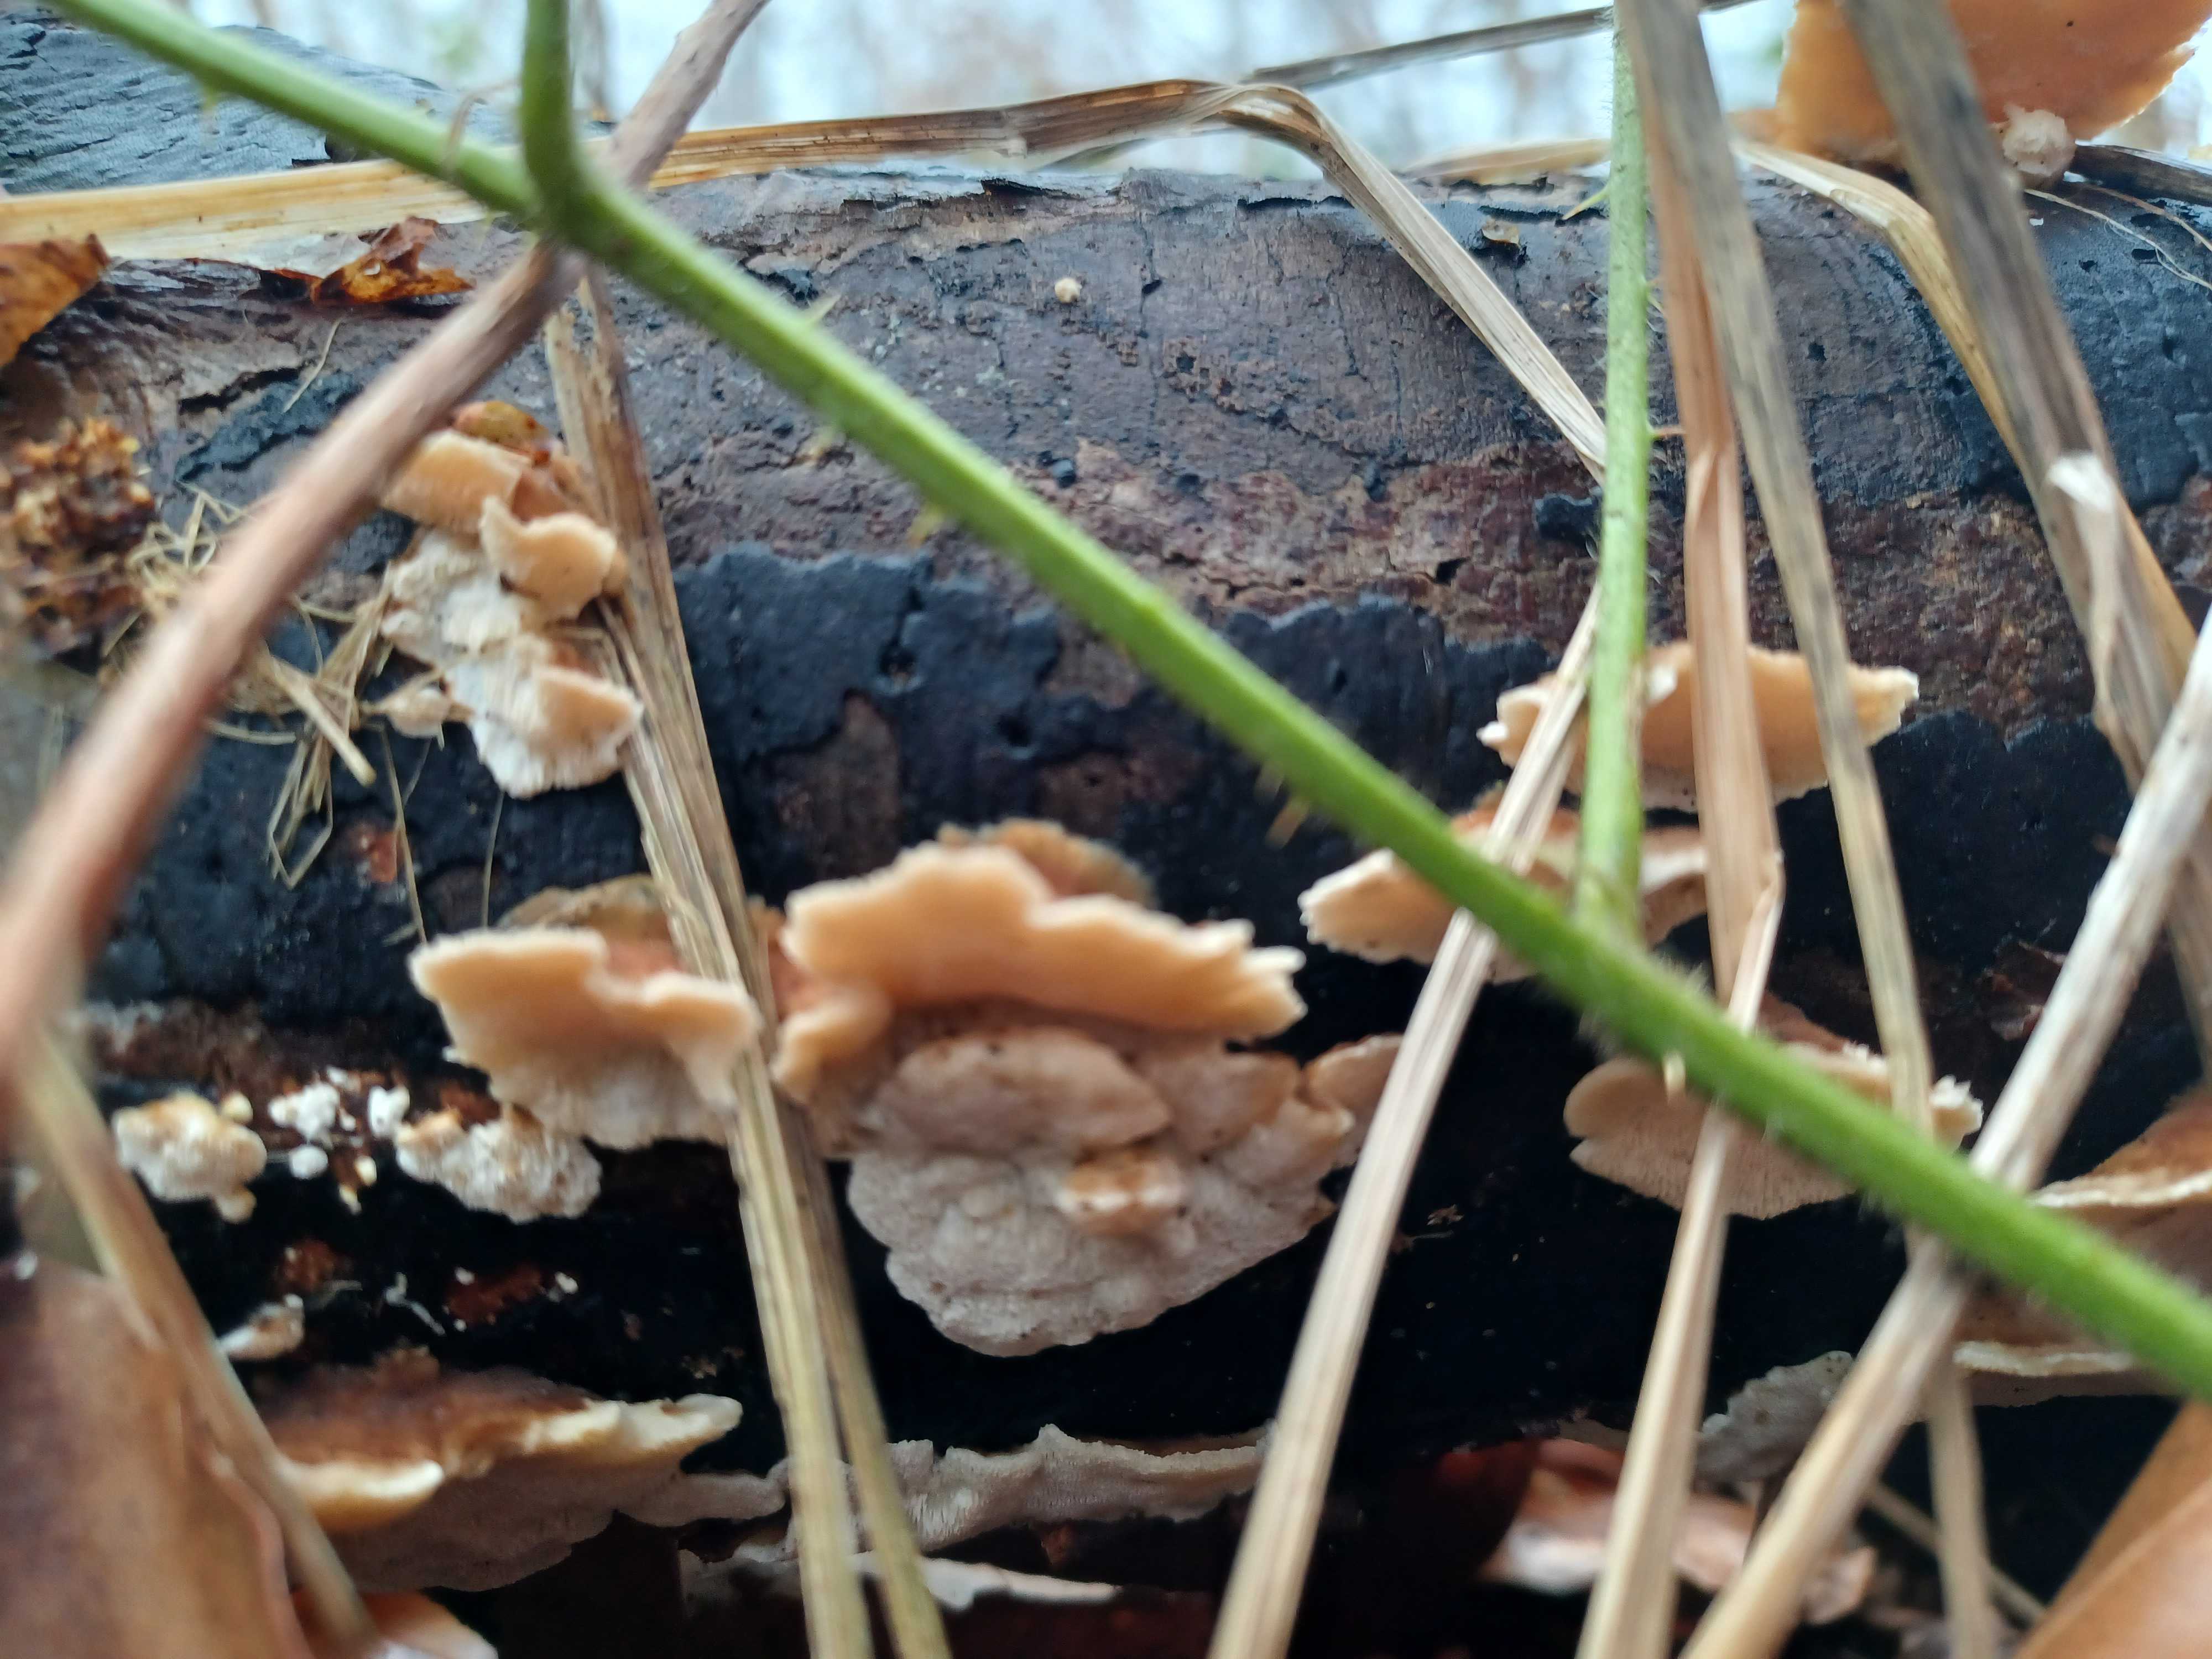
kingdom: Fungi
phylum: Basidiomycota
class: Agaricomycetes
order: Polyporales
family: Polyporaceae
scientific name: Polyporaceae
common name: poresvampfamilien
